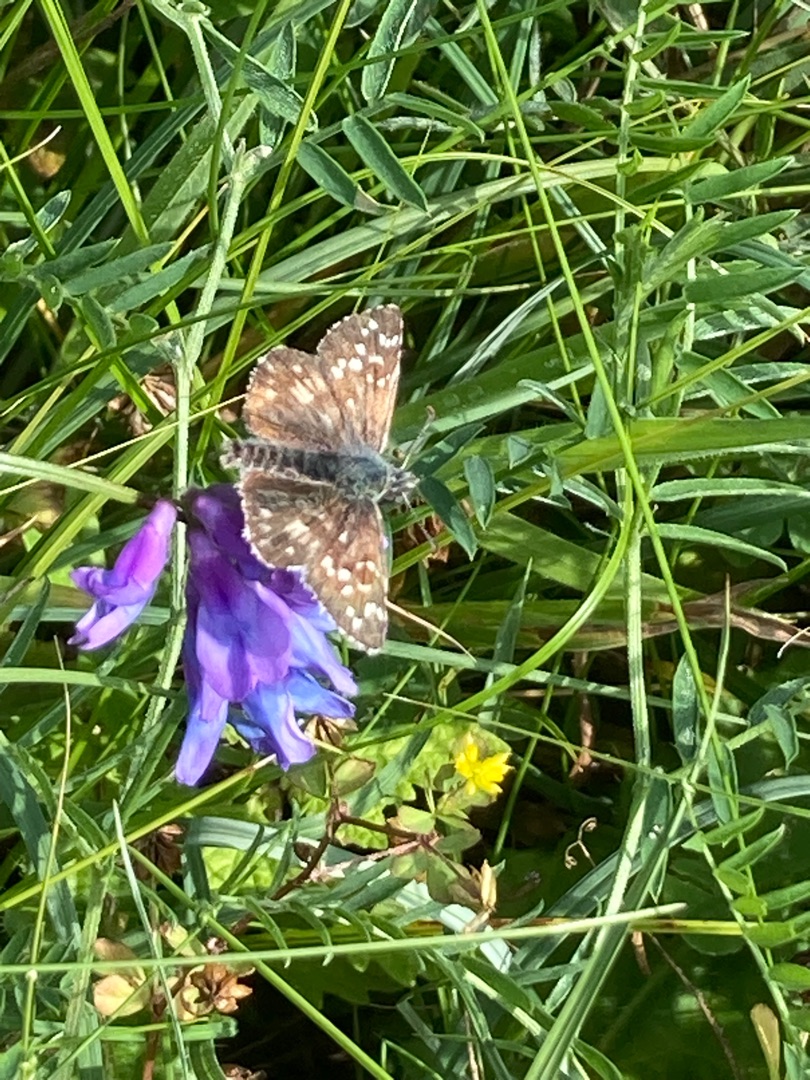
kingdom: Animalia
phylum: Arthropoda
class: Insecta
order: Lepidoptera
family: Hesperiidae
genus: Pyrgus
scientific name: Pyrgus armoricanus
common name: Fransk bredpande
